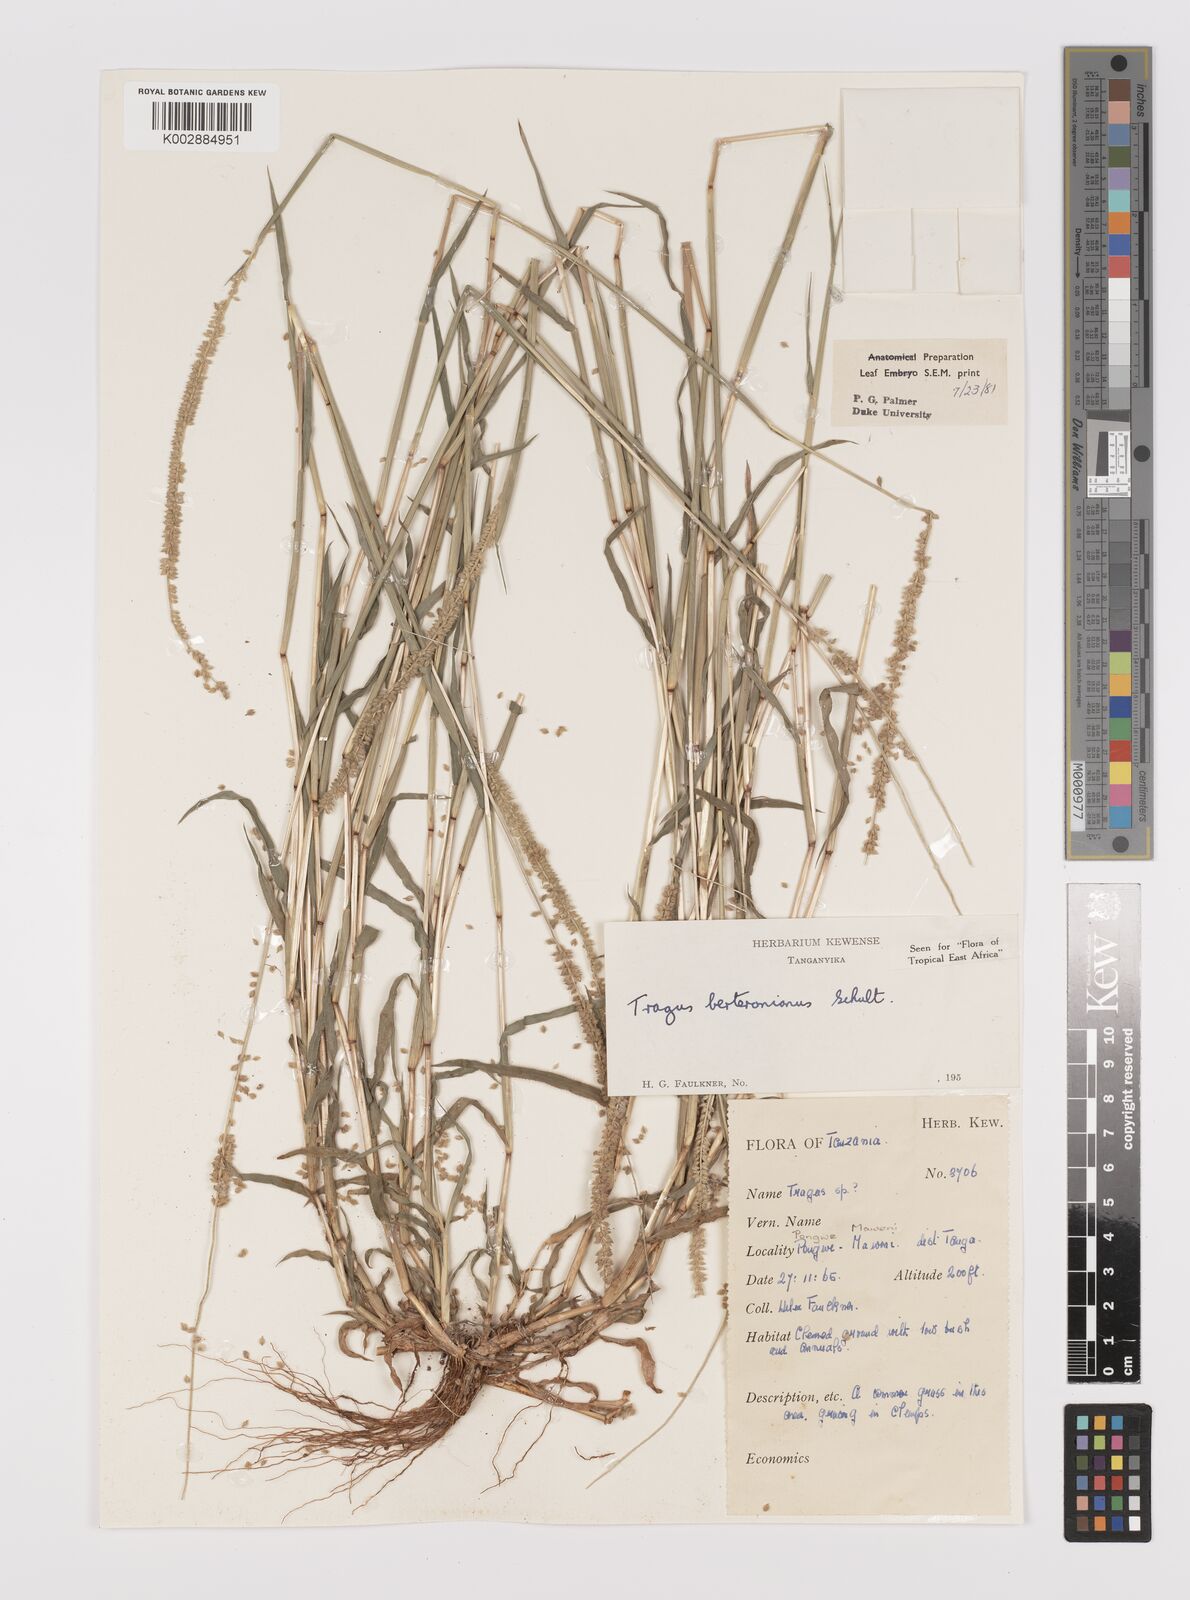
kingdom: Plantae
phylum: Tracheophyta
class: Liliopsida
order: Poales
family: Poaceae
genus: Tragus
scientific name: Tragus berteronianus
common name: African bur-grass
